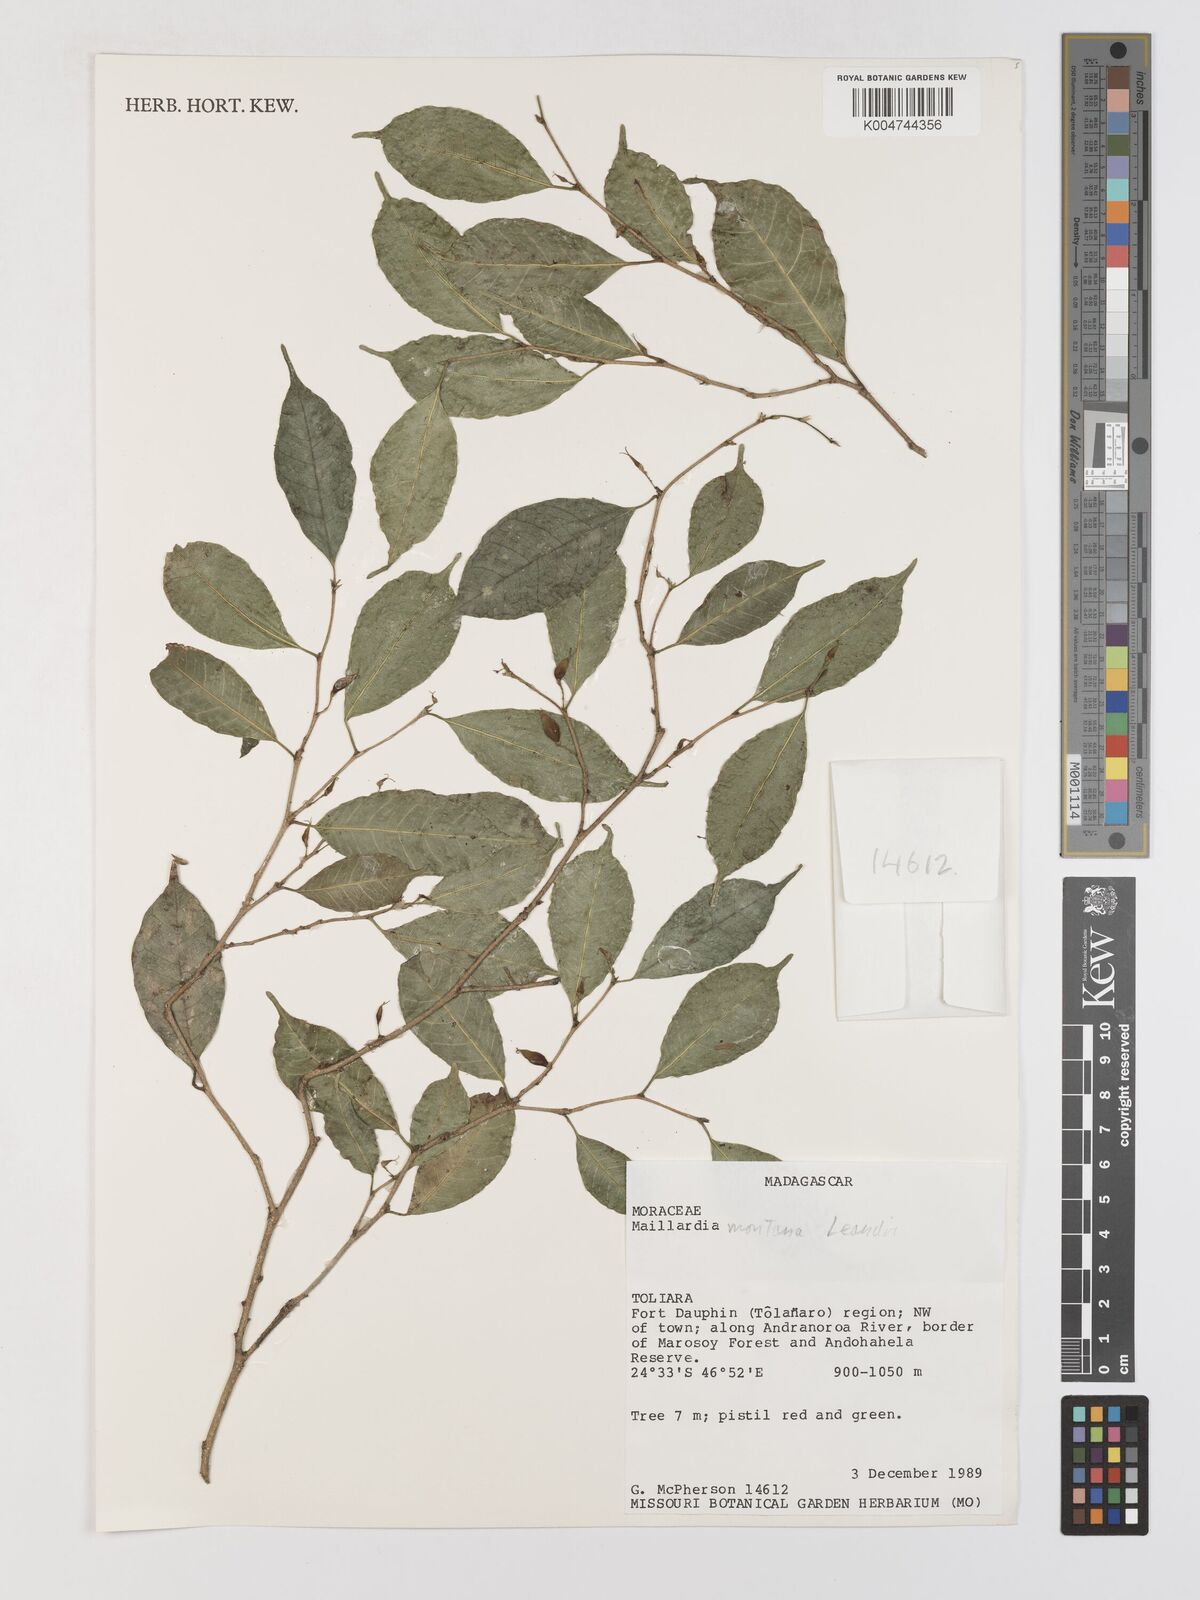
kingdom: Plantae
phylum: Tracheophyta
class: Magnoliopsida
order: Rosales
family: Moraceae
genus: Maillardia
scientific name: Maillardia montana
